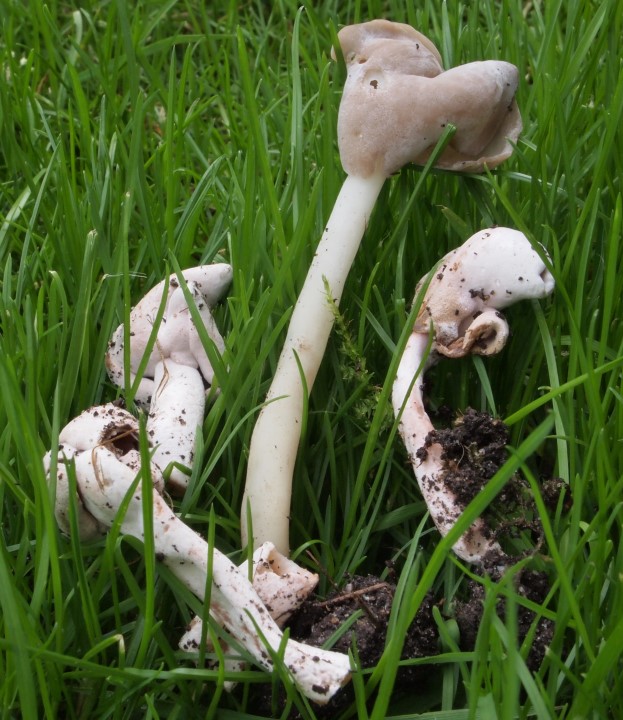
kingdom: Fungi
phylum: Ascomycota
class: Pezizomycetes
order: Pezizales
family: Helvellaceae
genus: Helvella
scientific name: Helvella elastica
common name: elastik-foldhat
